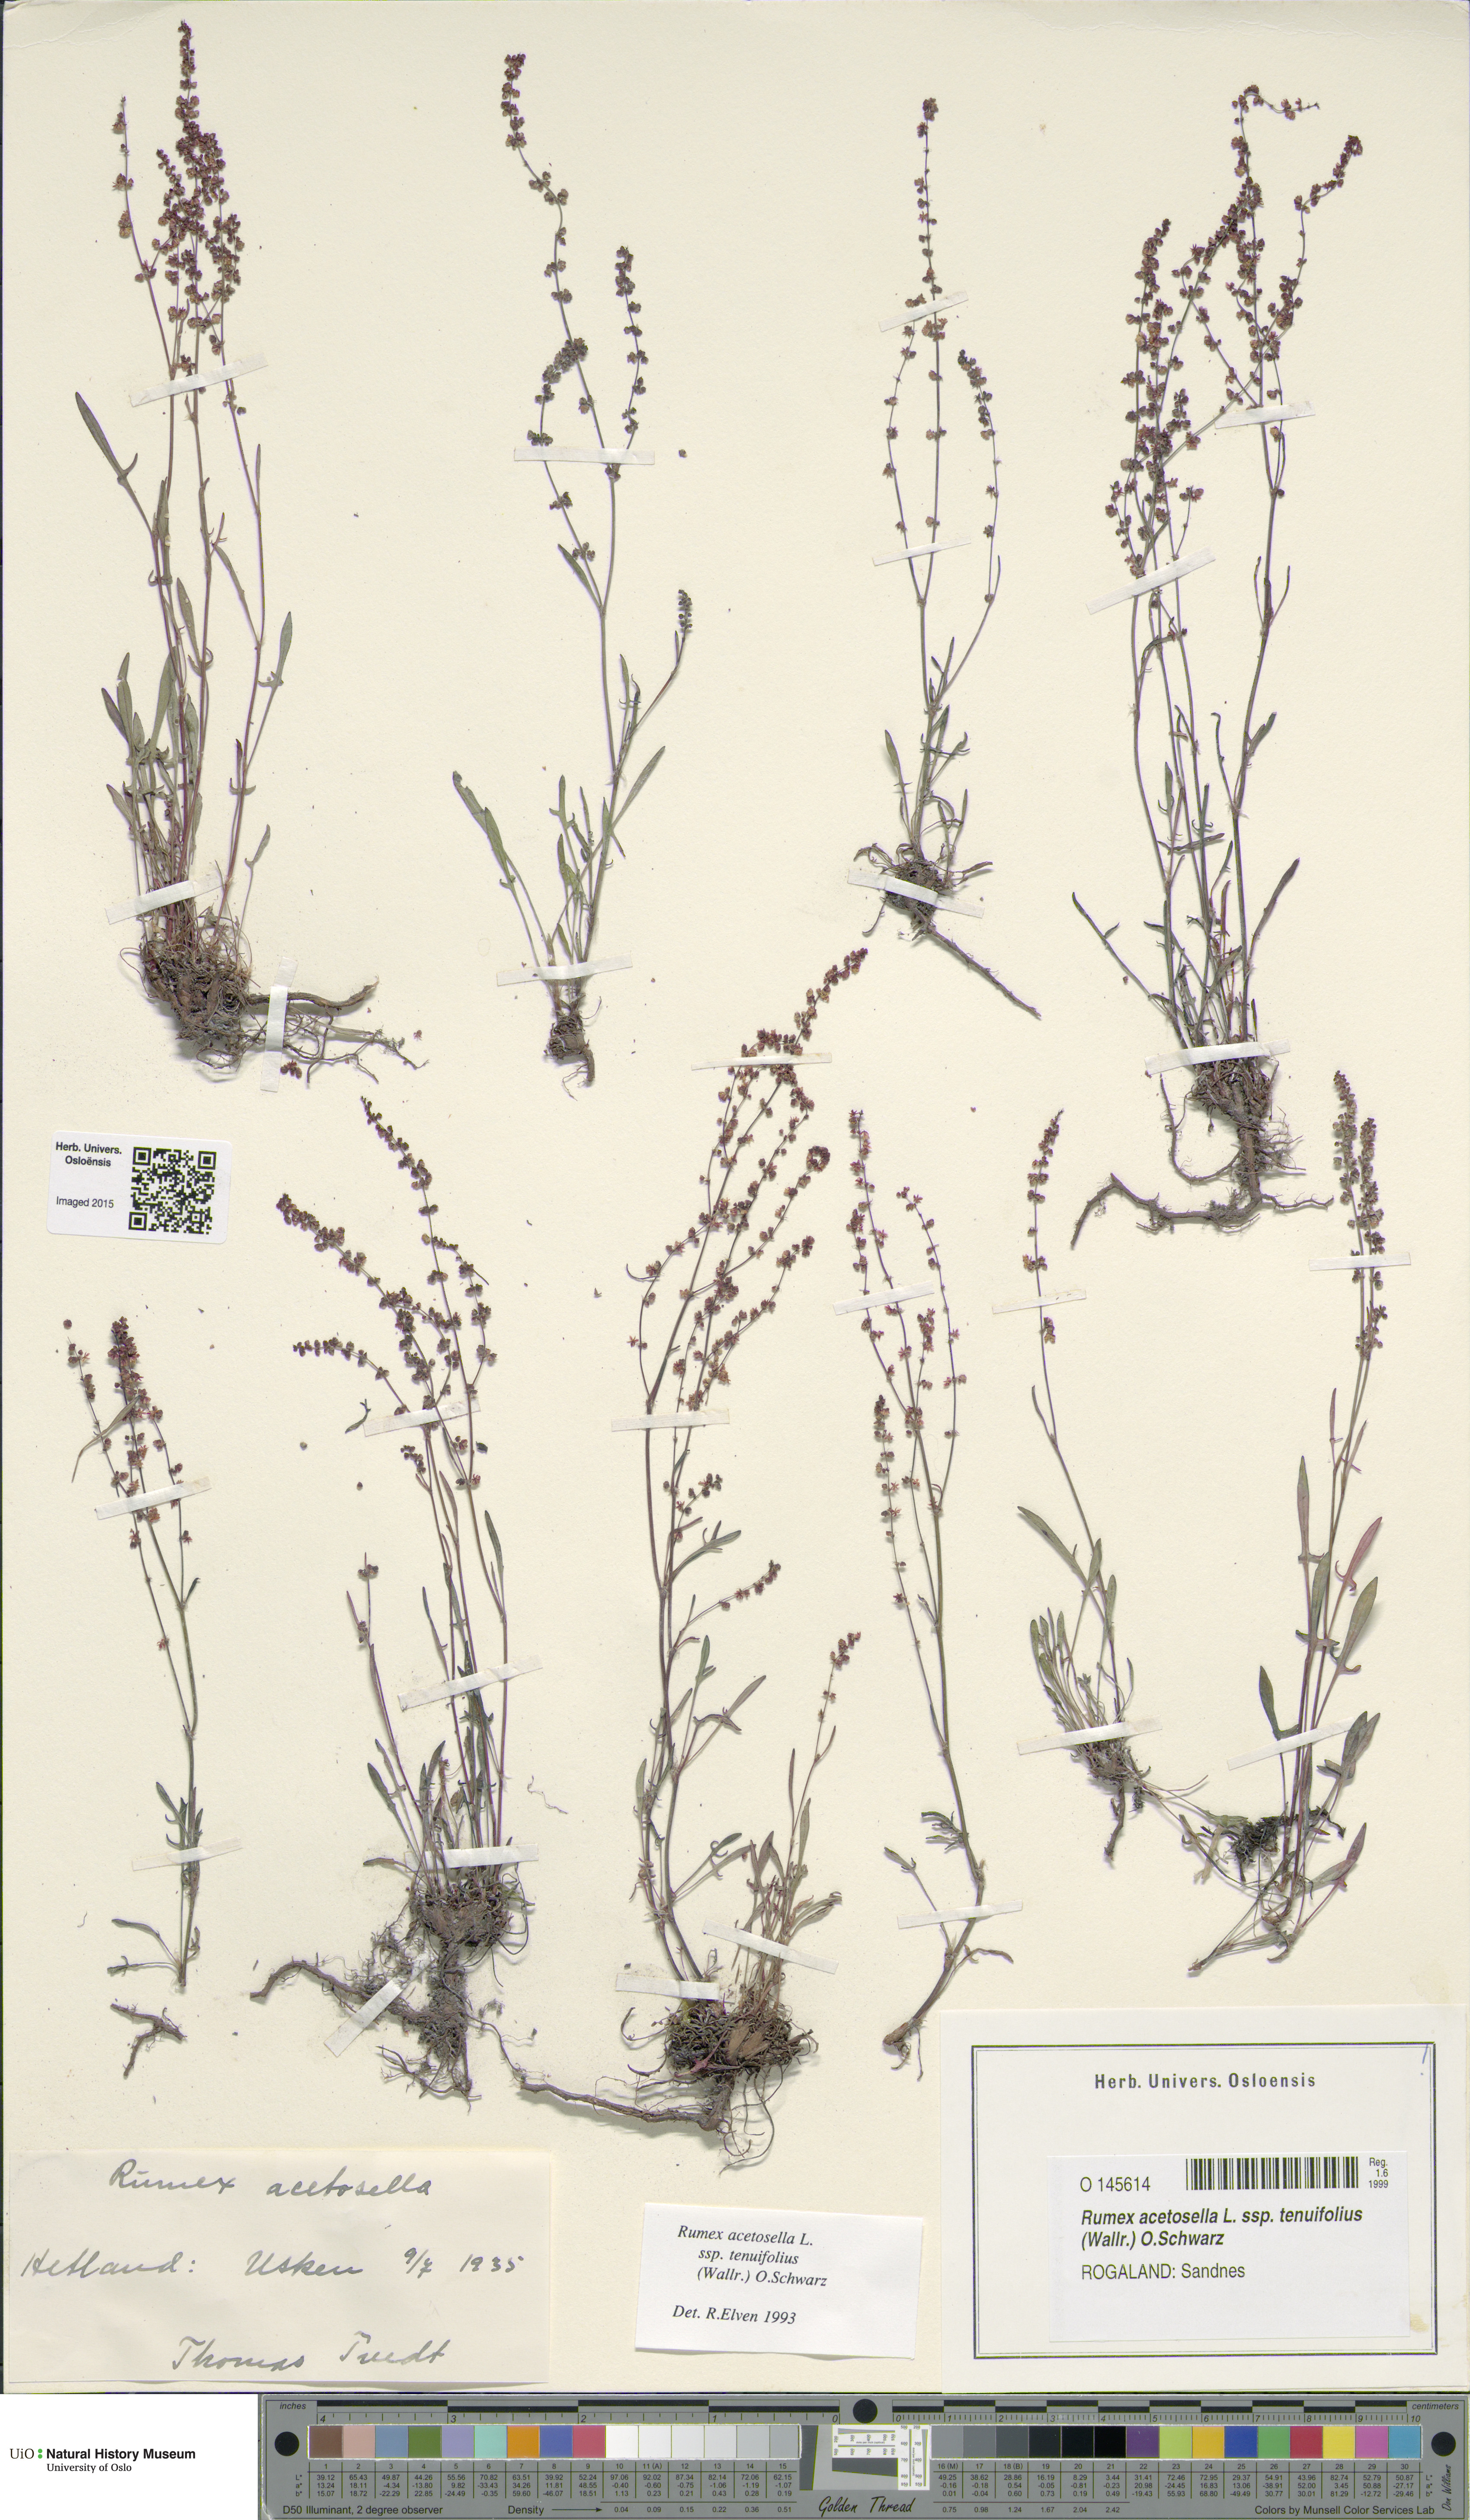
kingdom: Plantae
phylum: Tracheophyta
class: Magnoliopsida
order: Caryophyllales
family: Polygonaceae
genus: Rumex
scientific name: Rumex acetosella
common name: Common sheep sorrel
